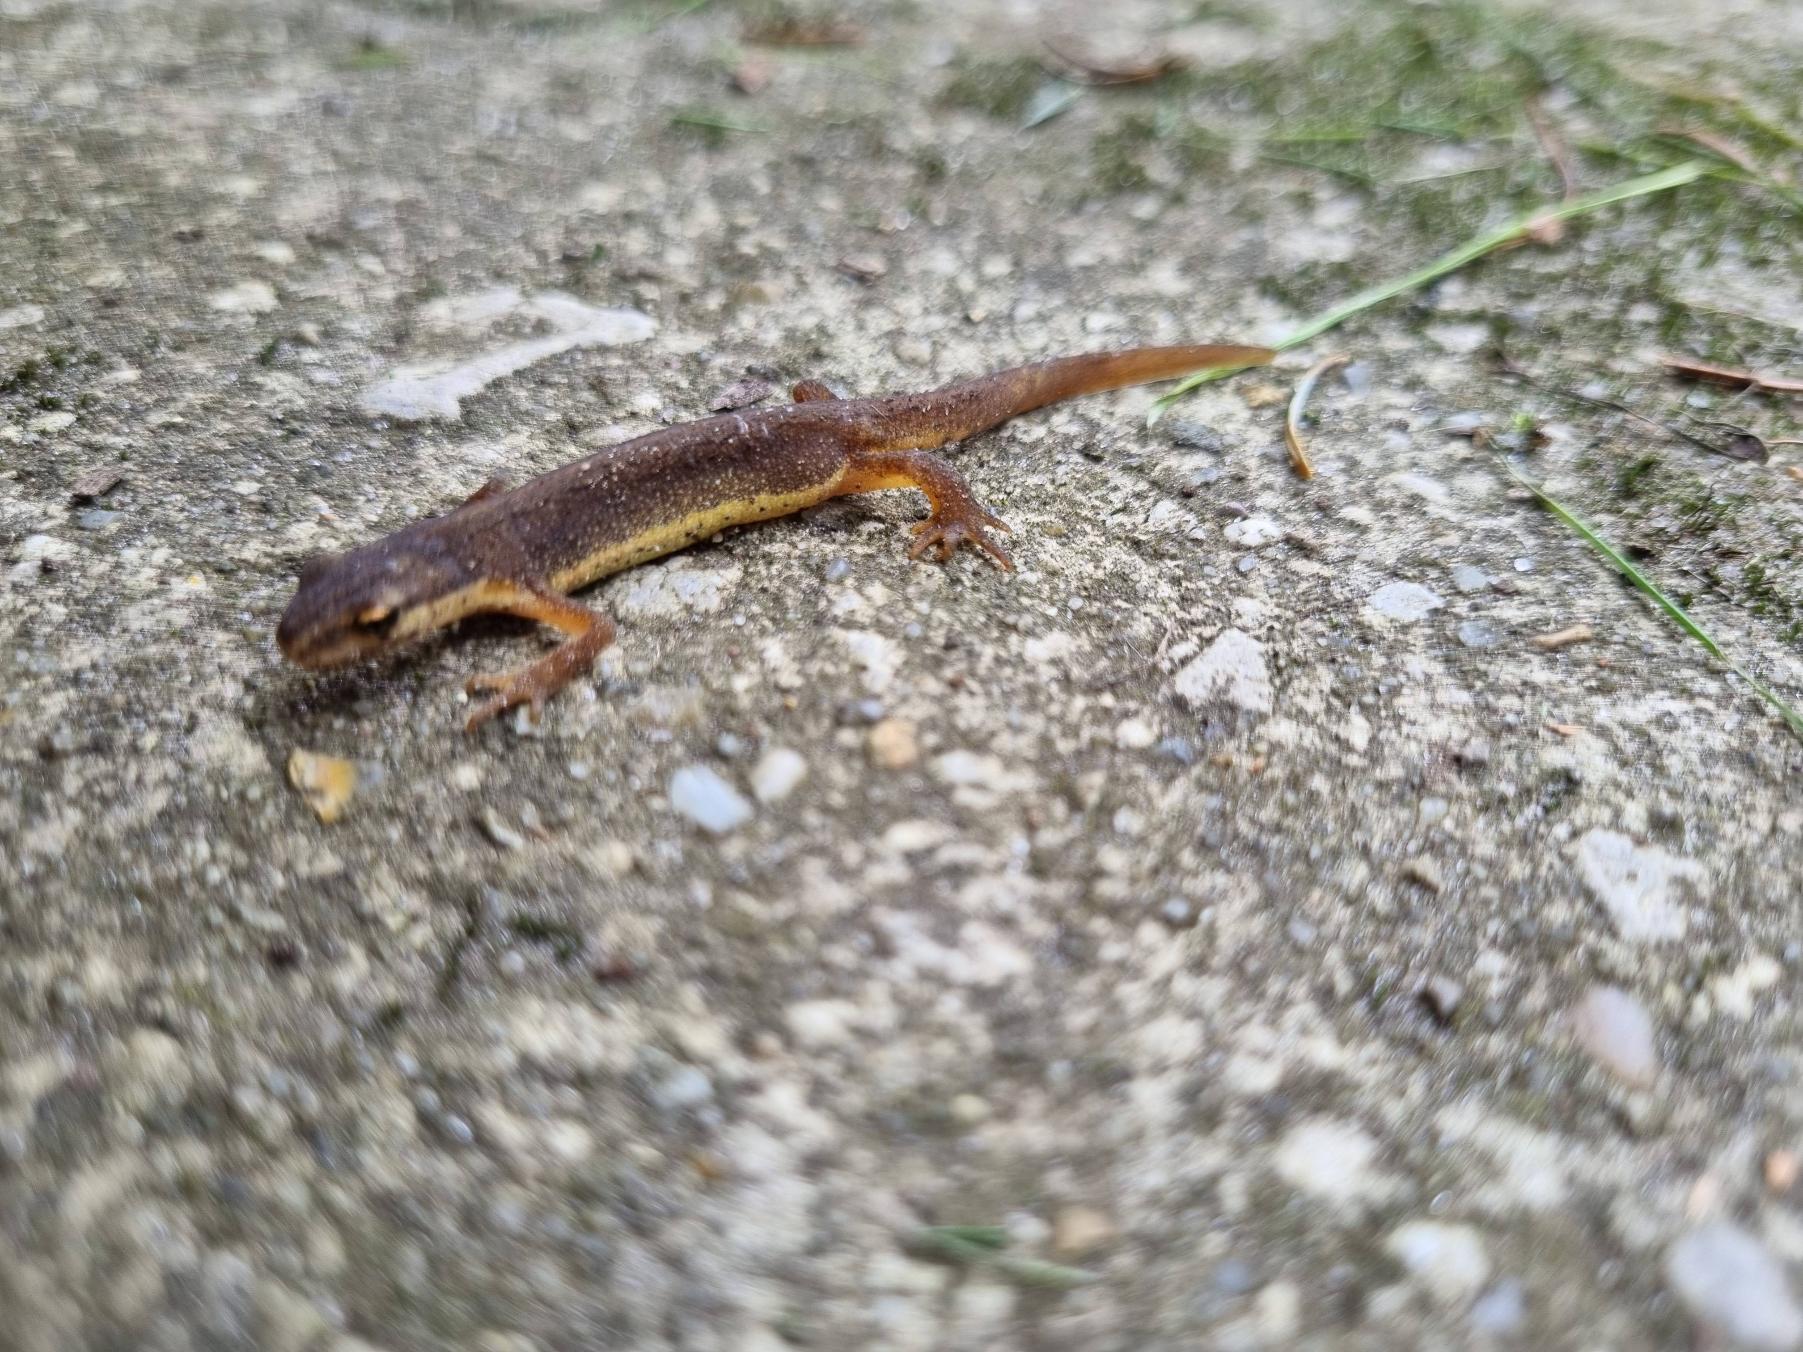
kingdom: Animalia
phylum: Chordata
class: Amphibia
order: Caudata
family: Salamandridae
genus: Lissotriton
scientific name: Lissotriton vulgaris
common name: Lille vandsalamander
